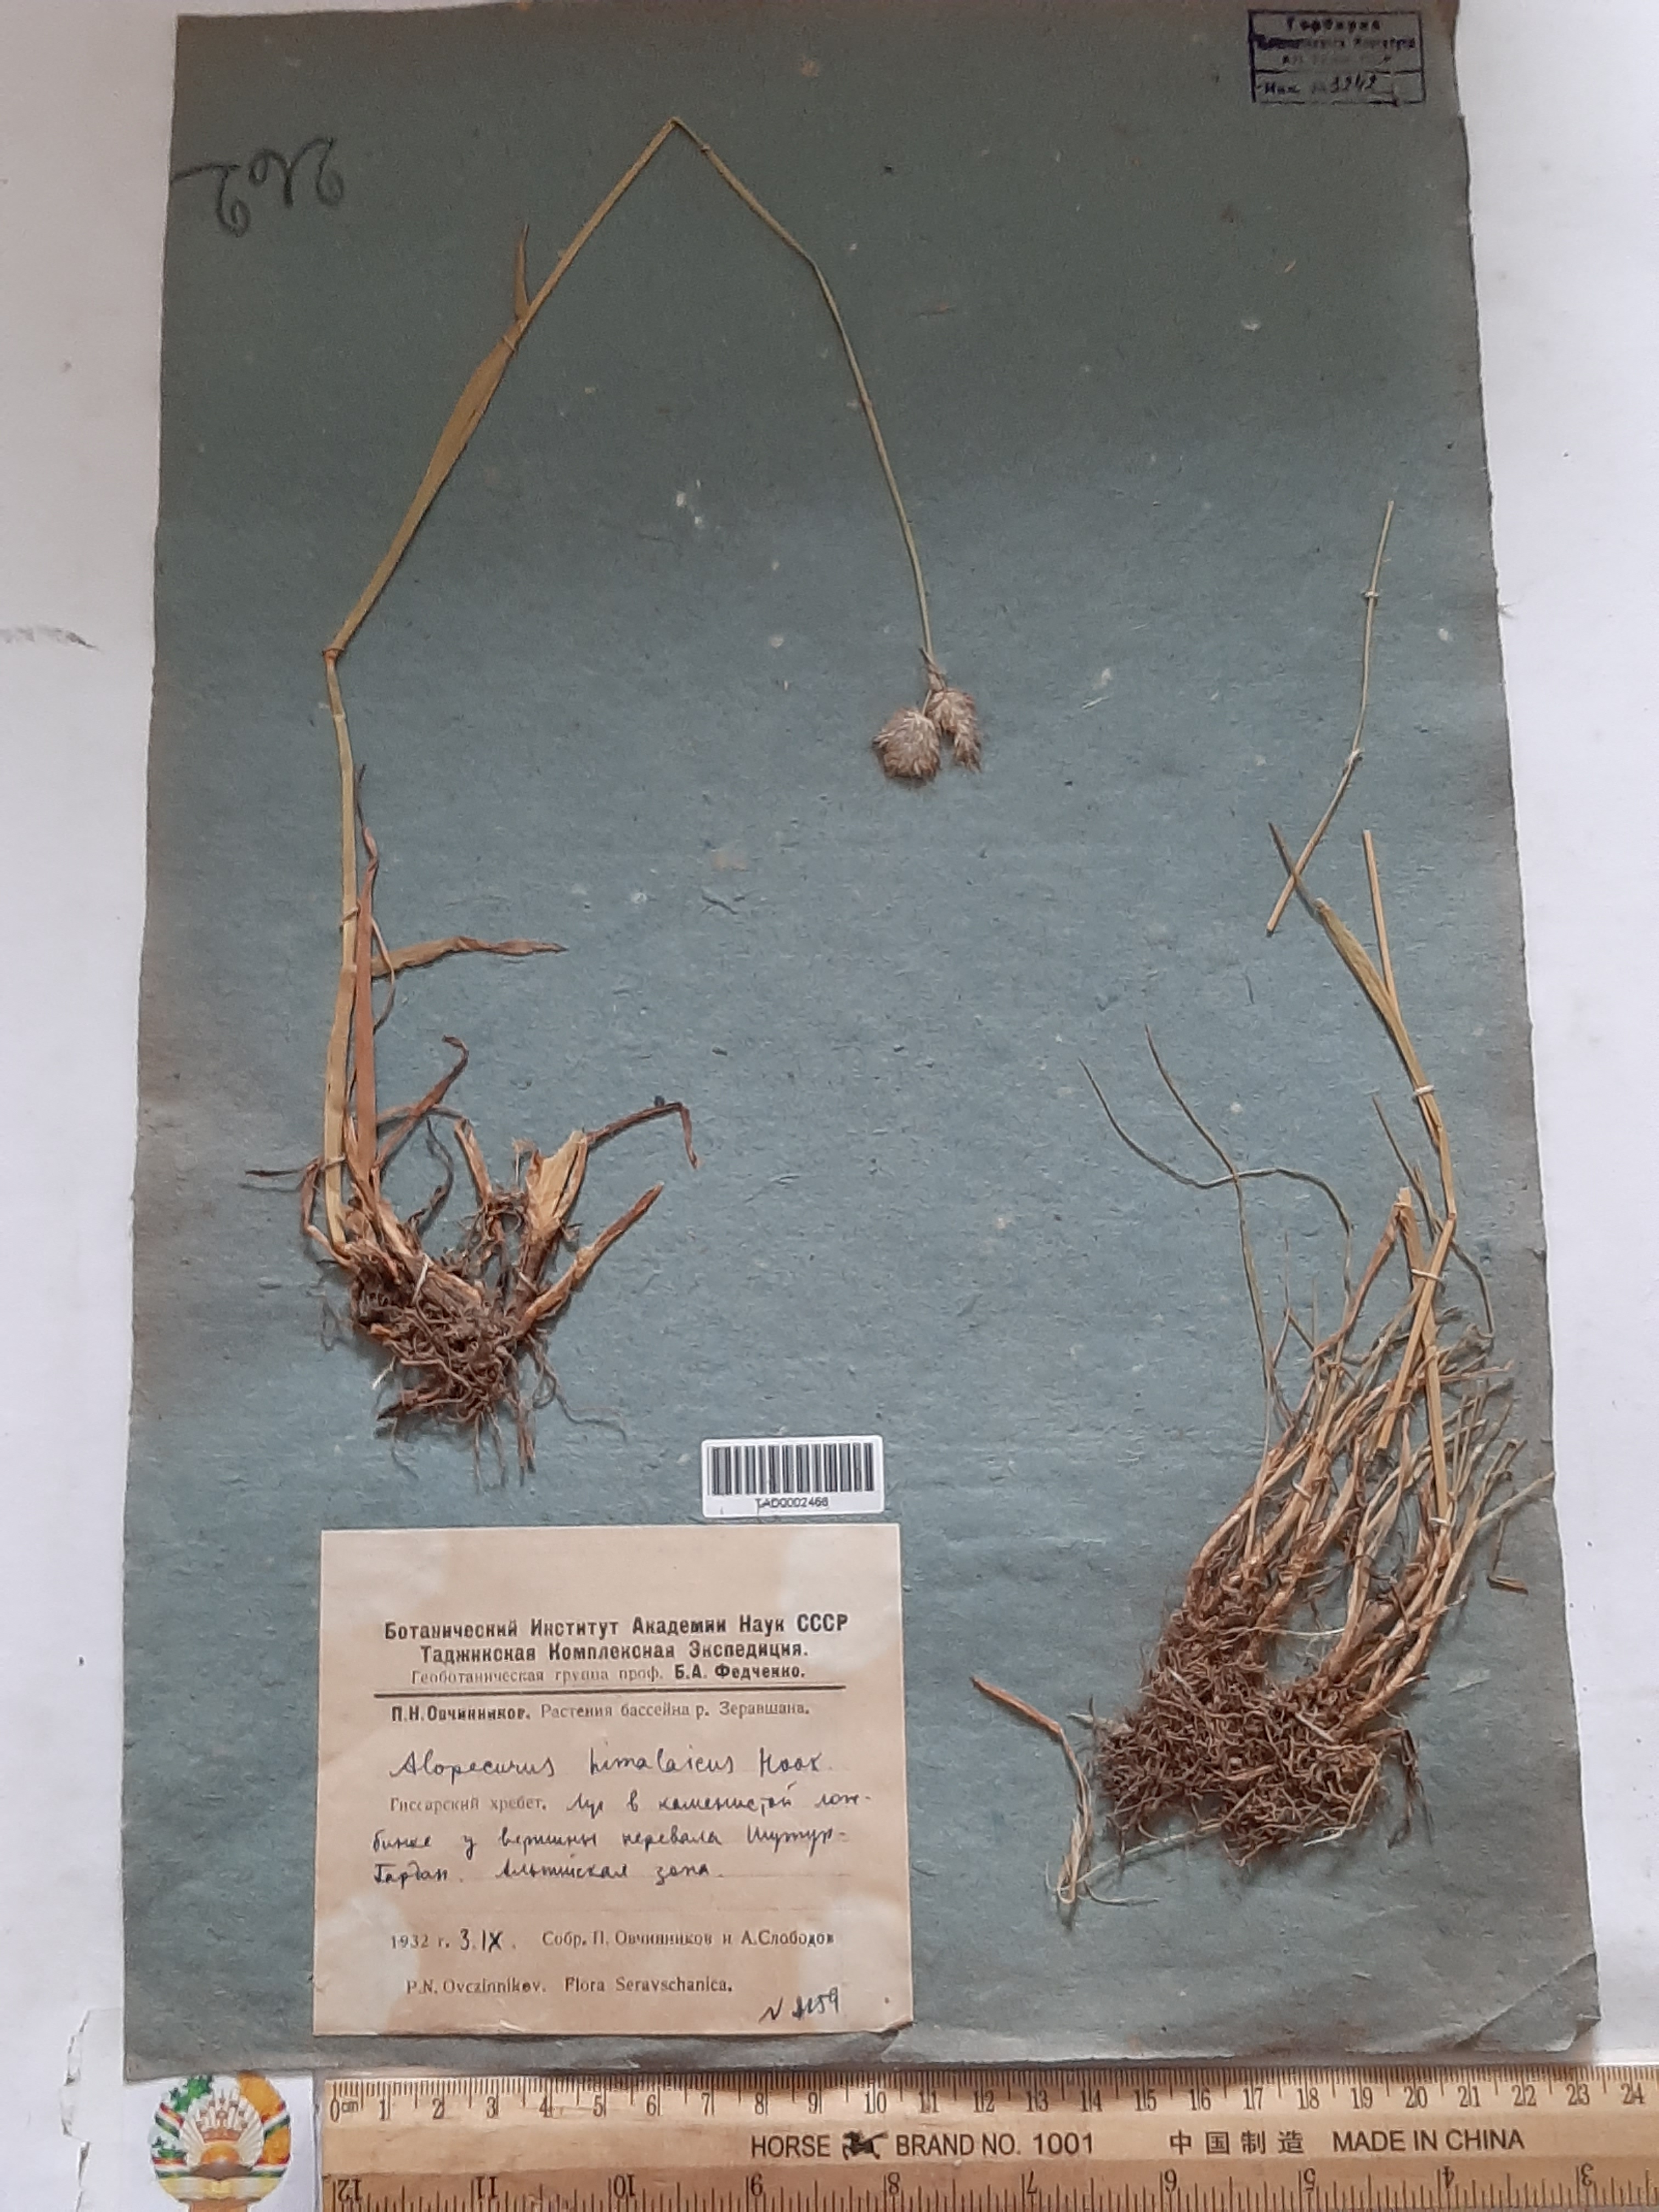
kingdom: Plantae
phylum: Tracheophyta
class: Liliopsida
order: Poales
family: Poaceae
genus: Alopecurus
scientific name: Alopecurus himalaicus
